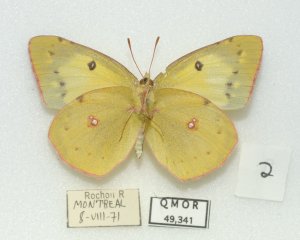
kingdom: Animalia
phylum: Arthropoda
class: Insecta
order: Lepidoptera
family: Pieridae
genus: Colias
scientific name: Colias philodice
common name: Clouded Sulphur
